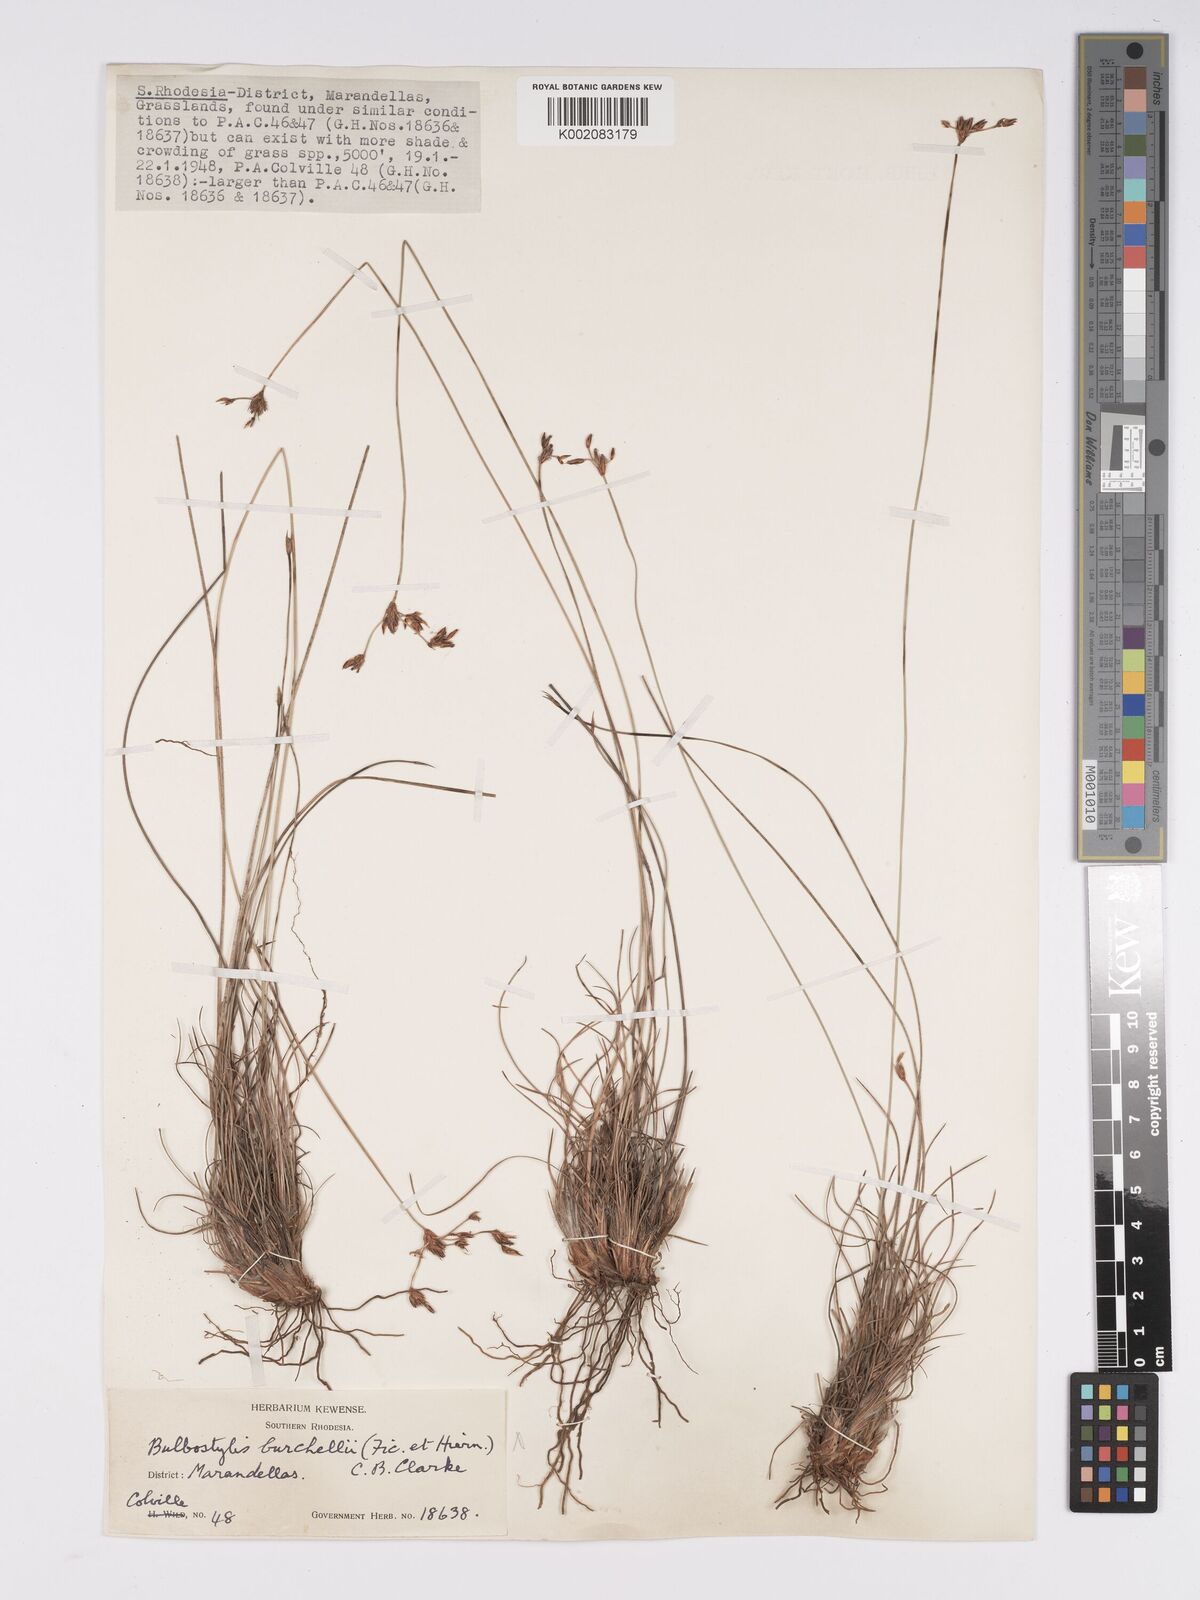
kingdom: Plantae
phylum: Tracheophyta
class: Liliopsida
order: Poales
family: Cyperaceae
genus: Bulbostylis
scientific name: Bulbostylis contexta
